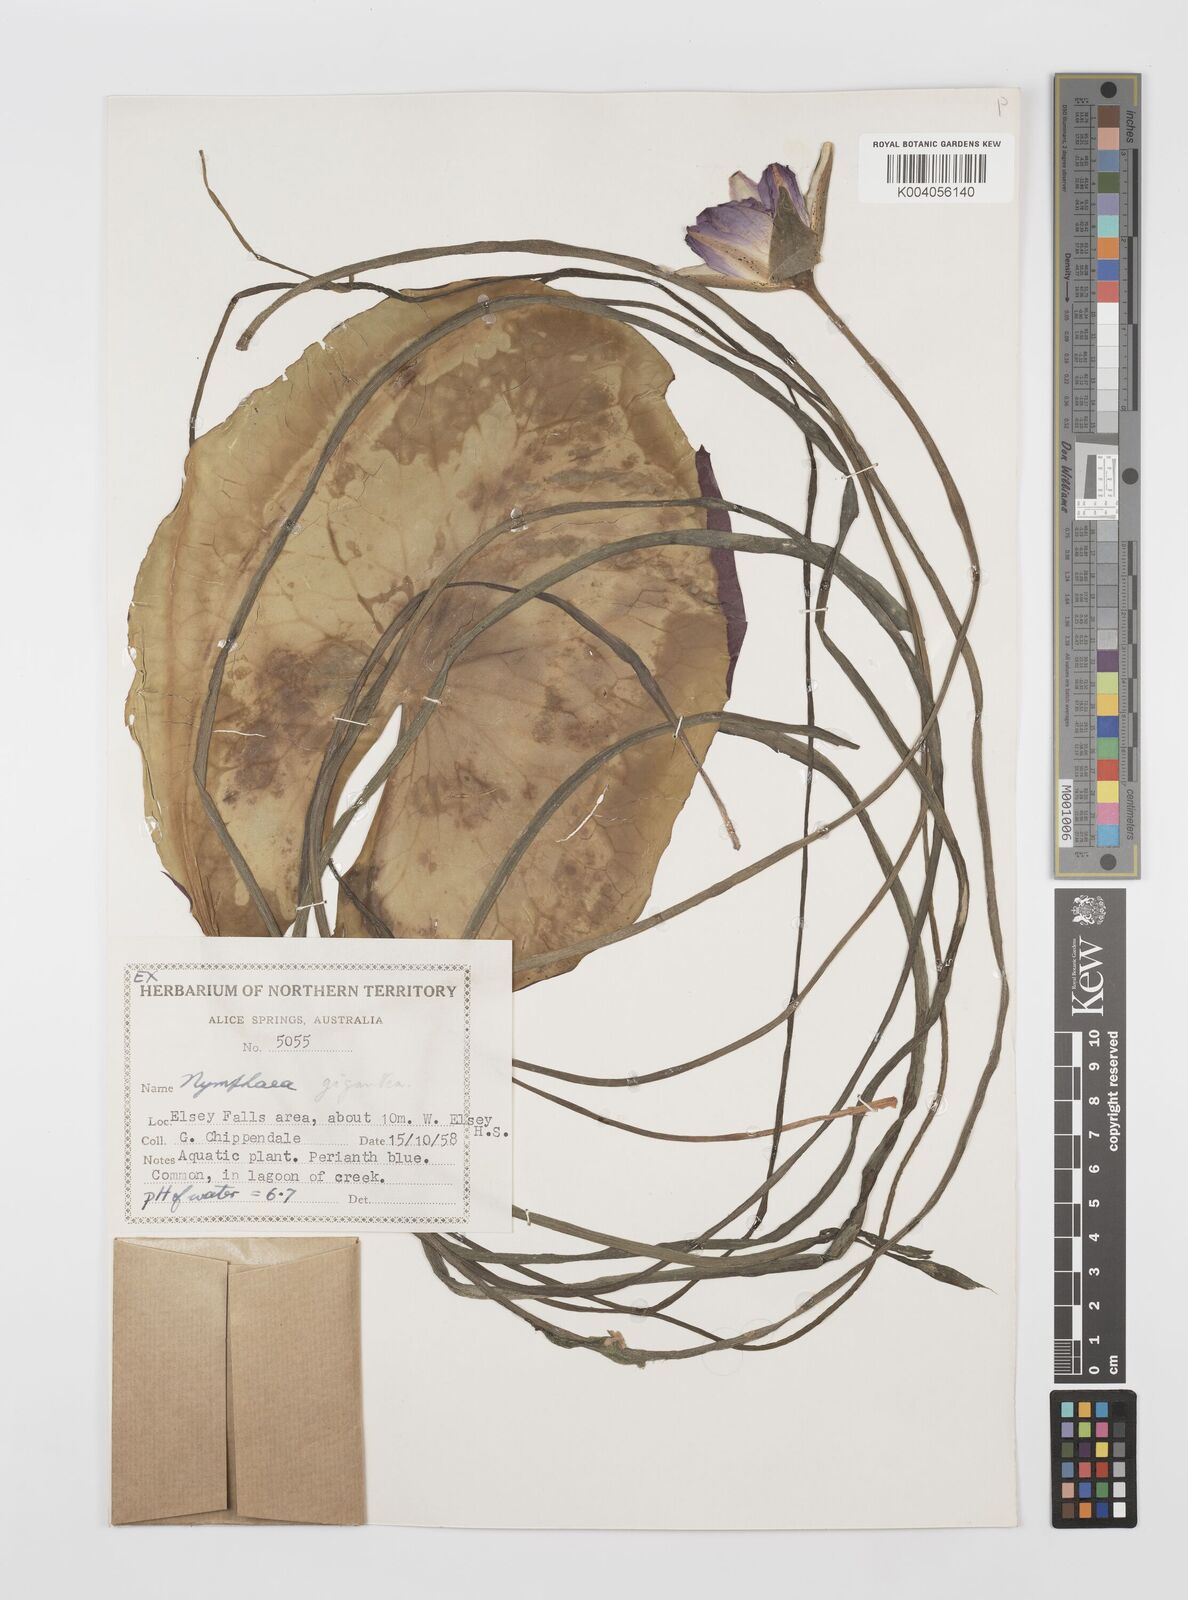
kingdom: Plantae
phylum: Tracheophyta
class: Magnoliopsida
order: Nymphaeales
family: Nymphaeaceae
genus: Nymphaea
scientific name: Nymphaea gigantea
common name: Giant water-lily
